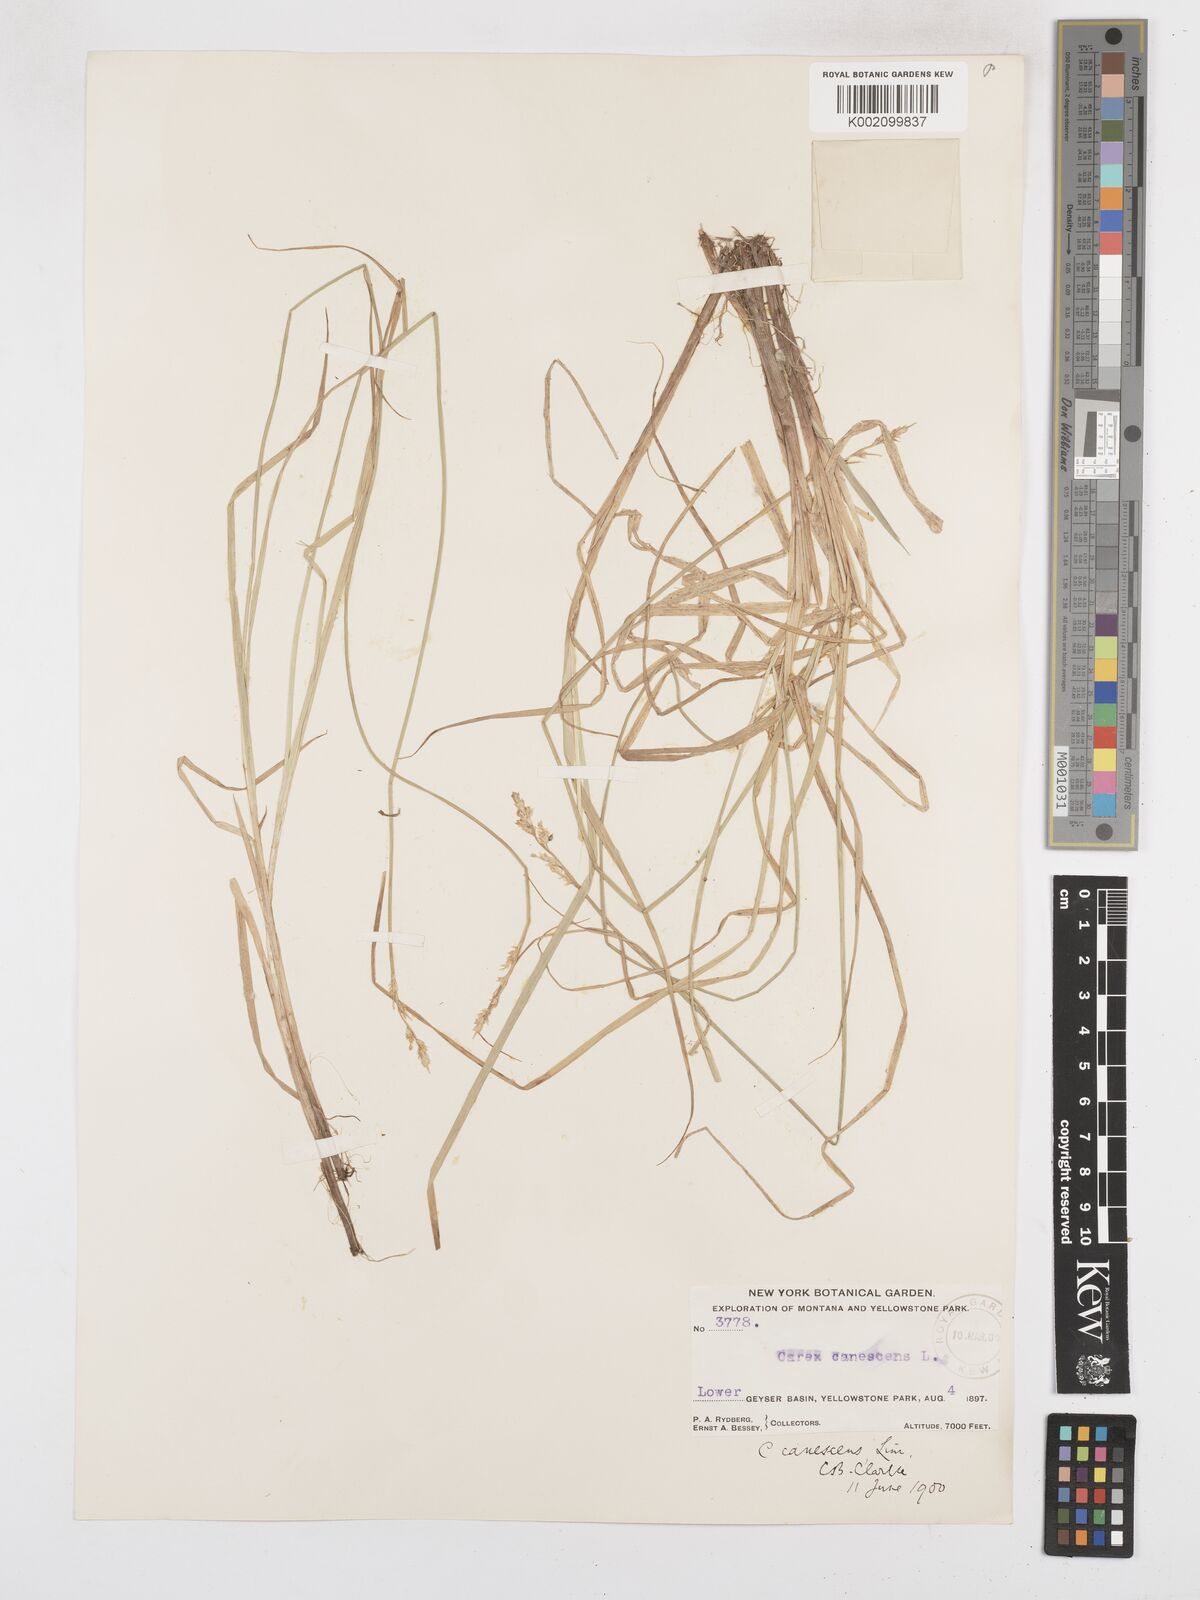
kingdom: Plantae
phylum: Tracheophyta
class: Liliopsida
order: Poales
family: Cyperaceae
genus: Carex
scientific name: Carex curta
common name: White sedge
